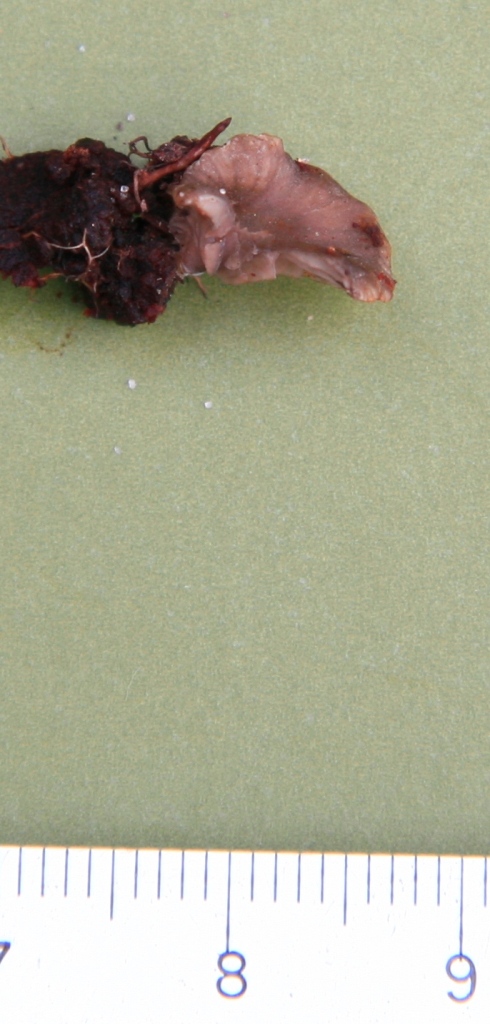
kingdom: Fungi
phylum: Basidiomycota
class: Agaricomycetes
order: Agaricales
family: Hygrophoraceae
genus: Arrhenia
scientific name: Arrhenia acerosa
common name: muslinge-fontænehat
